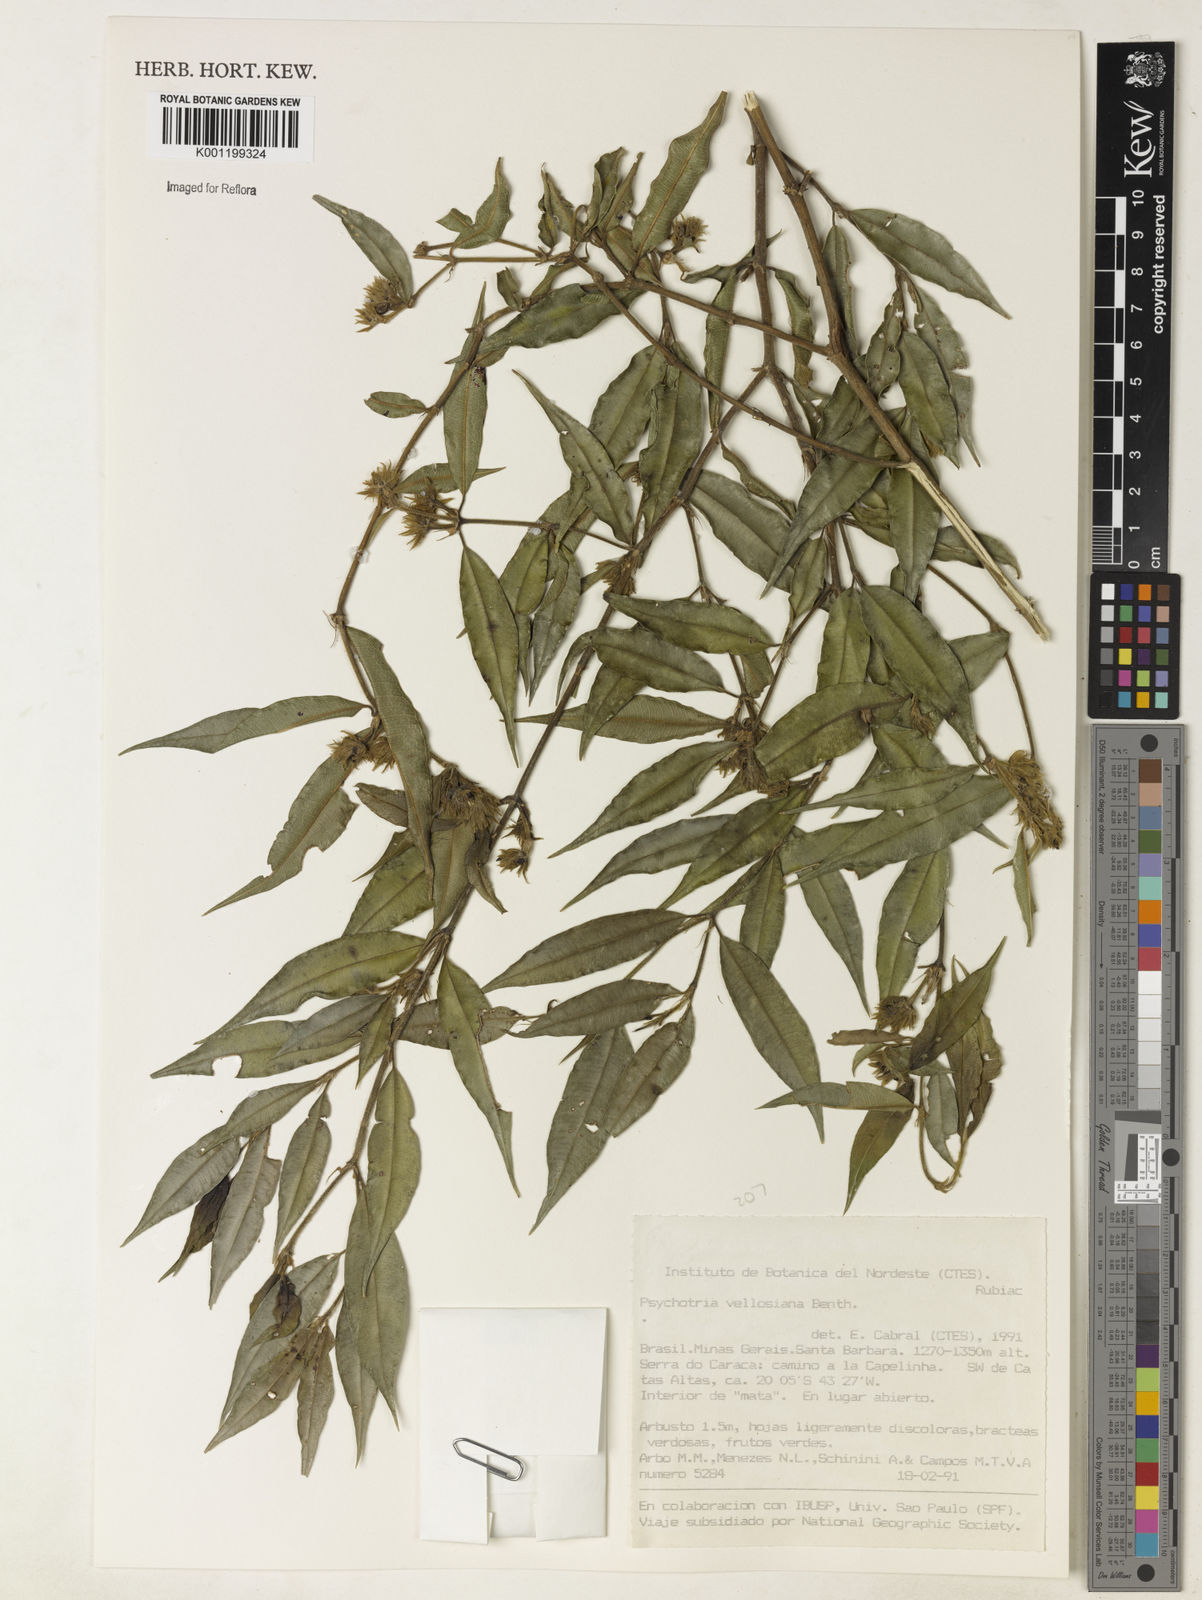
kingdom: Plantae
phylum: Tracheophyta
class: Magnoliopsida
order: Gentianales
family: Rubiaceae
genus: Rudgea
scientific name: Rudgea sessilis
